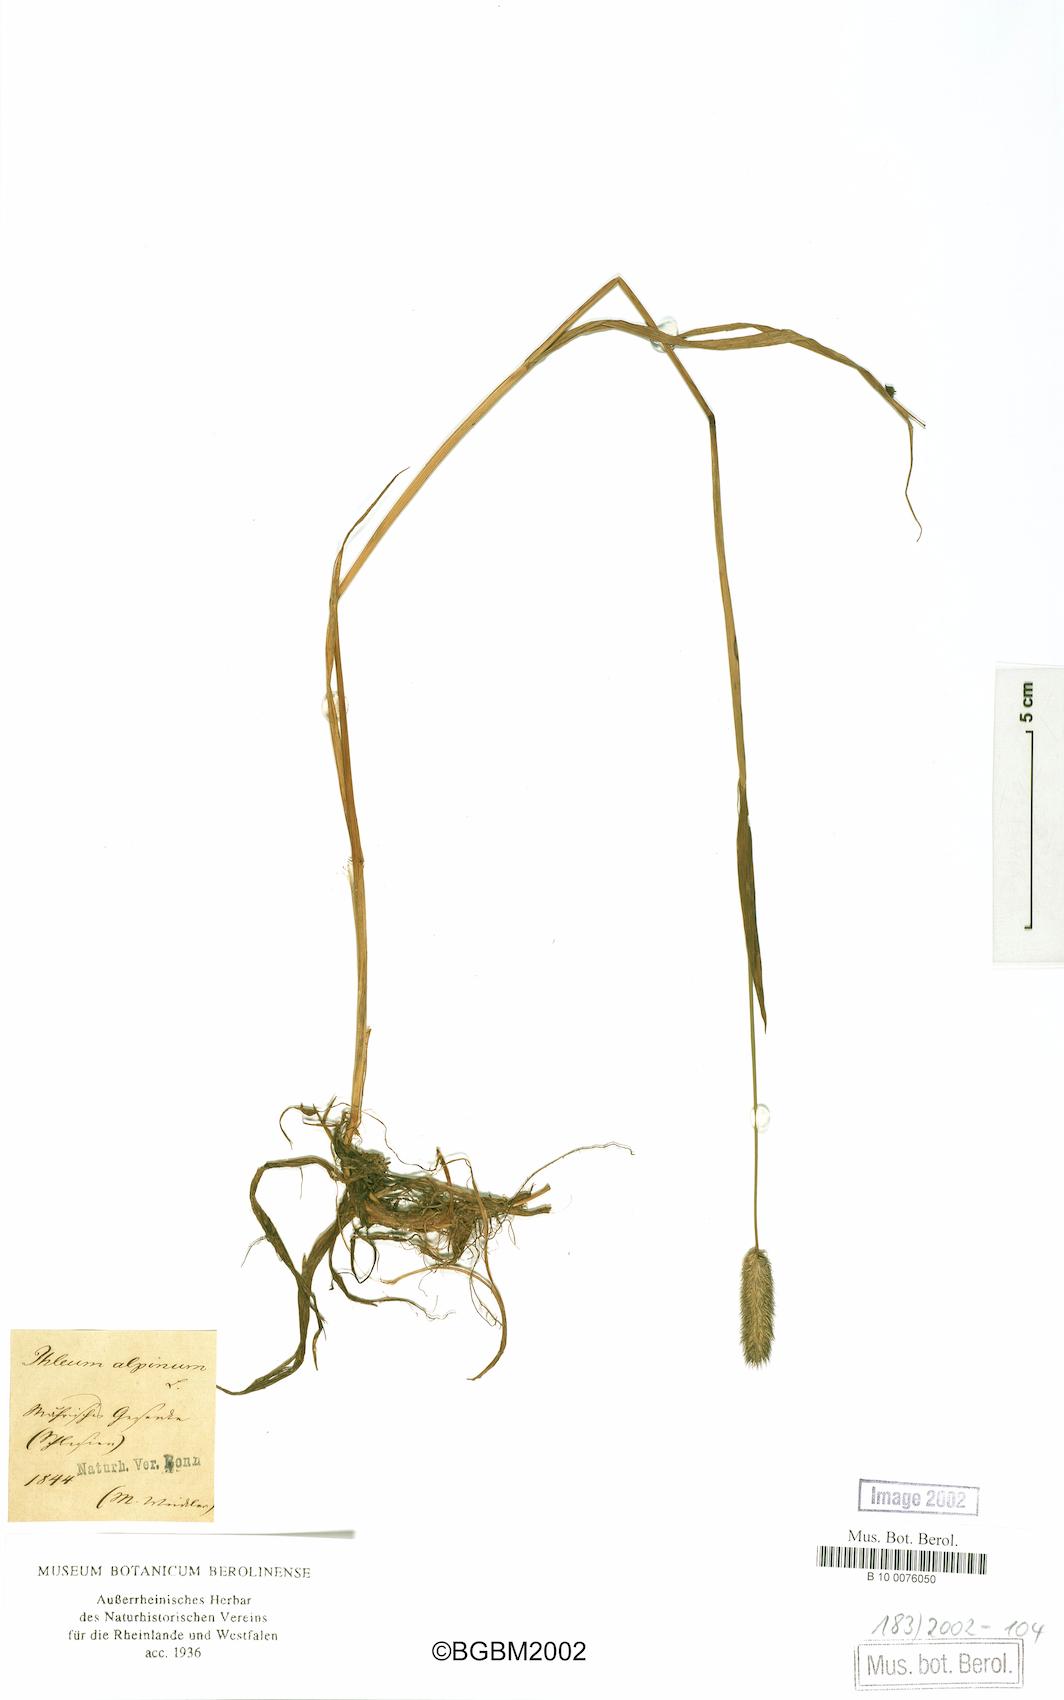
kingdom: Plantae
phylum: Tracheophyta
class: Liliopsida
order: Poales
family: Poaceae
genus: Phleum
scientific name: Phleum alpinum
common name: Alpine cat's-tail
